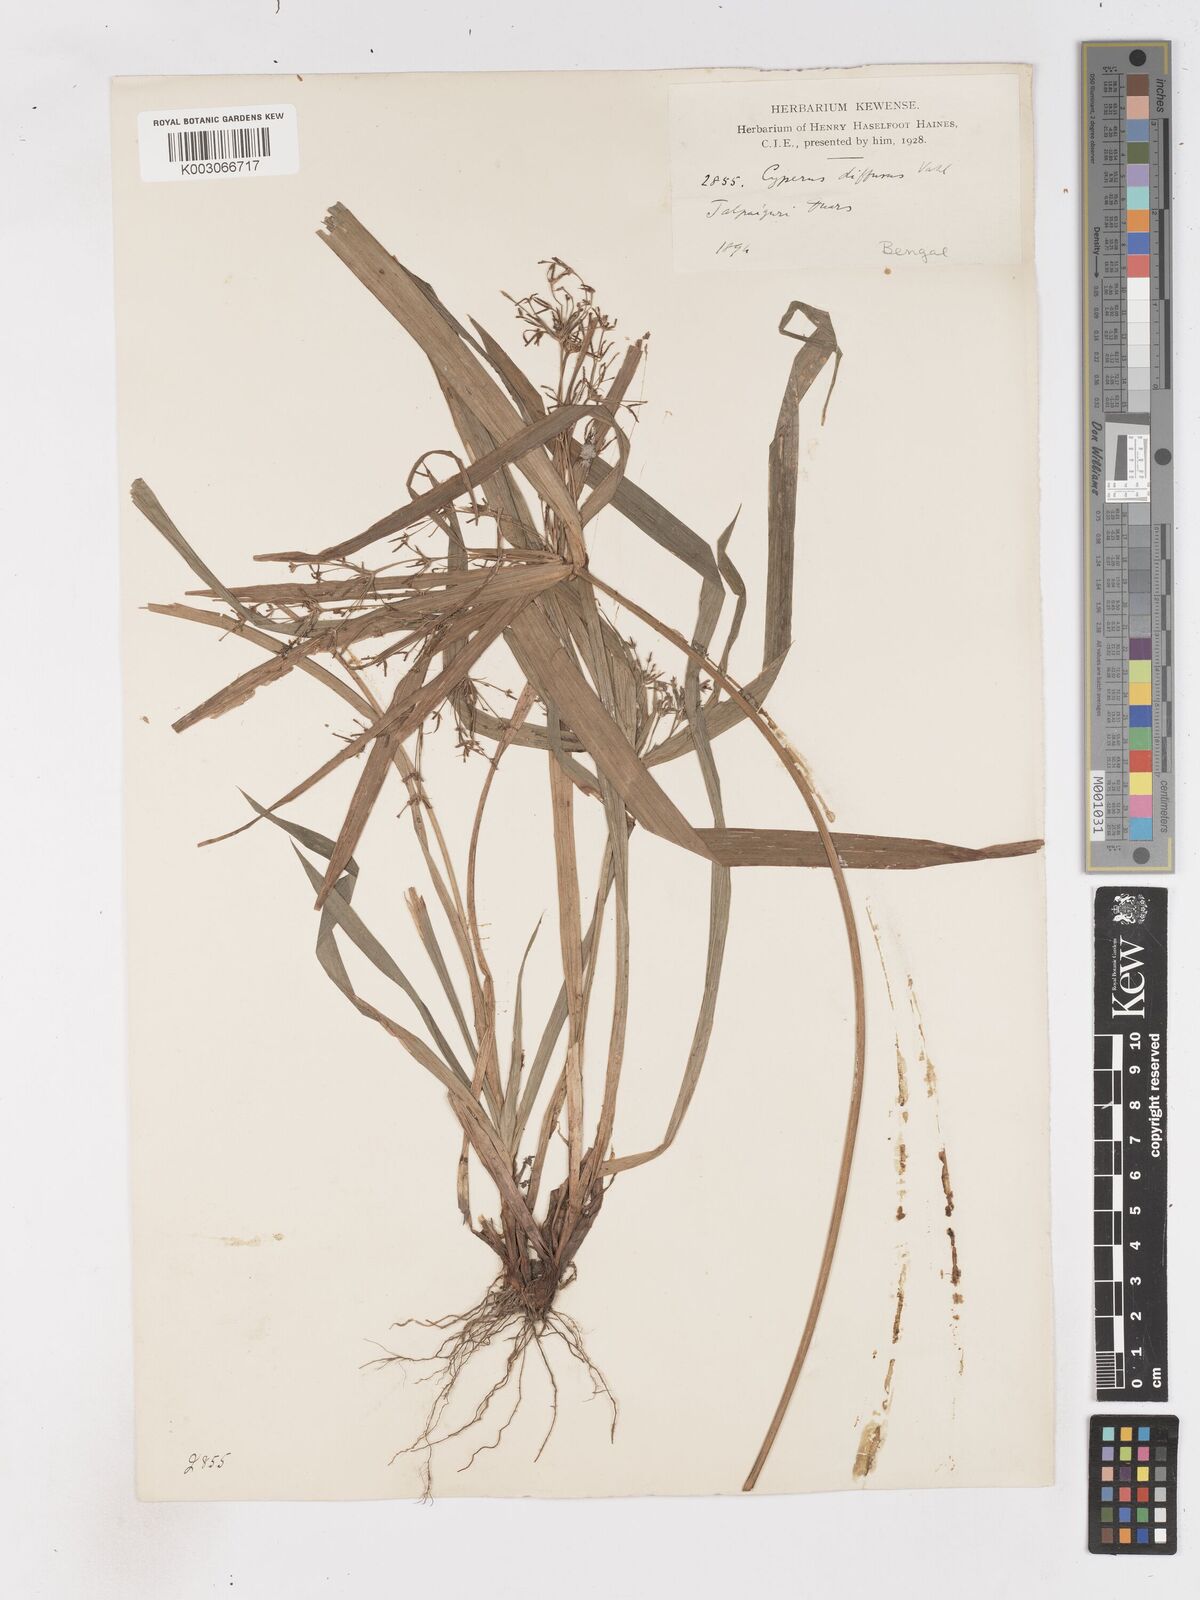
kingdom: Plantae
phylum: Tracheophyta
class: Liliopsida
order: Poales
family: Cyperaceae
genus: Cyperus
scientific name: Cyperus diffusus
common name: Dwarf umbrella grass
